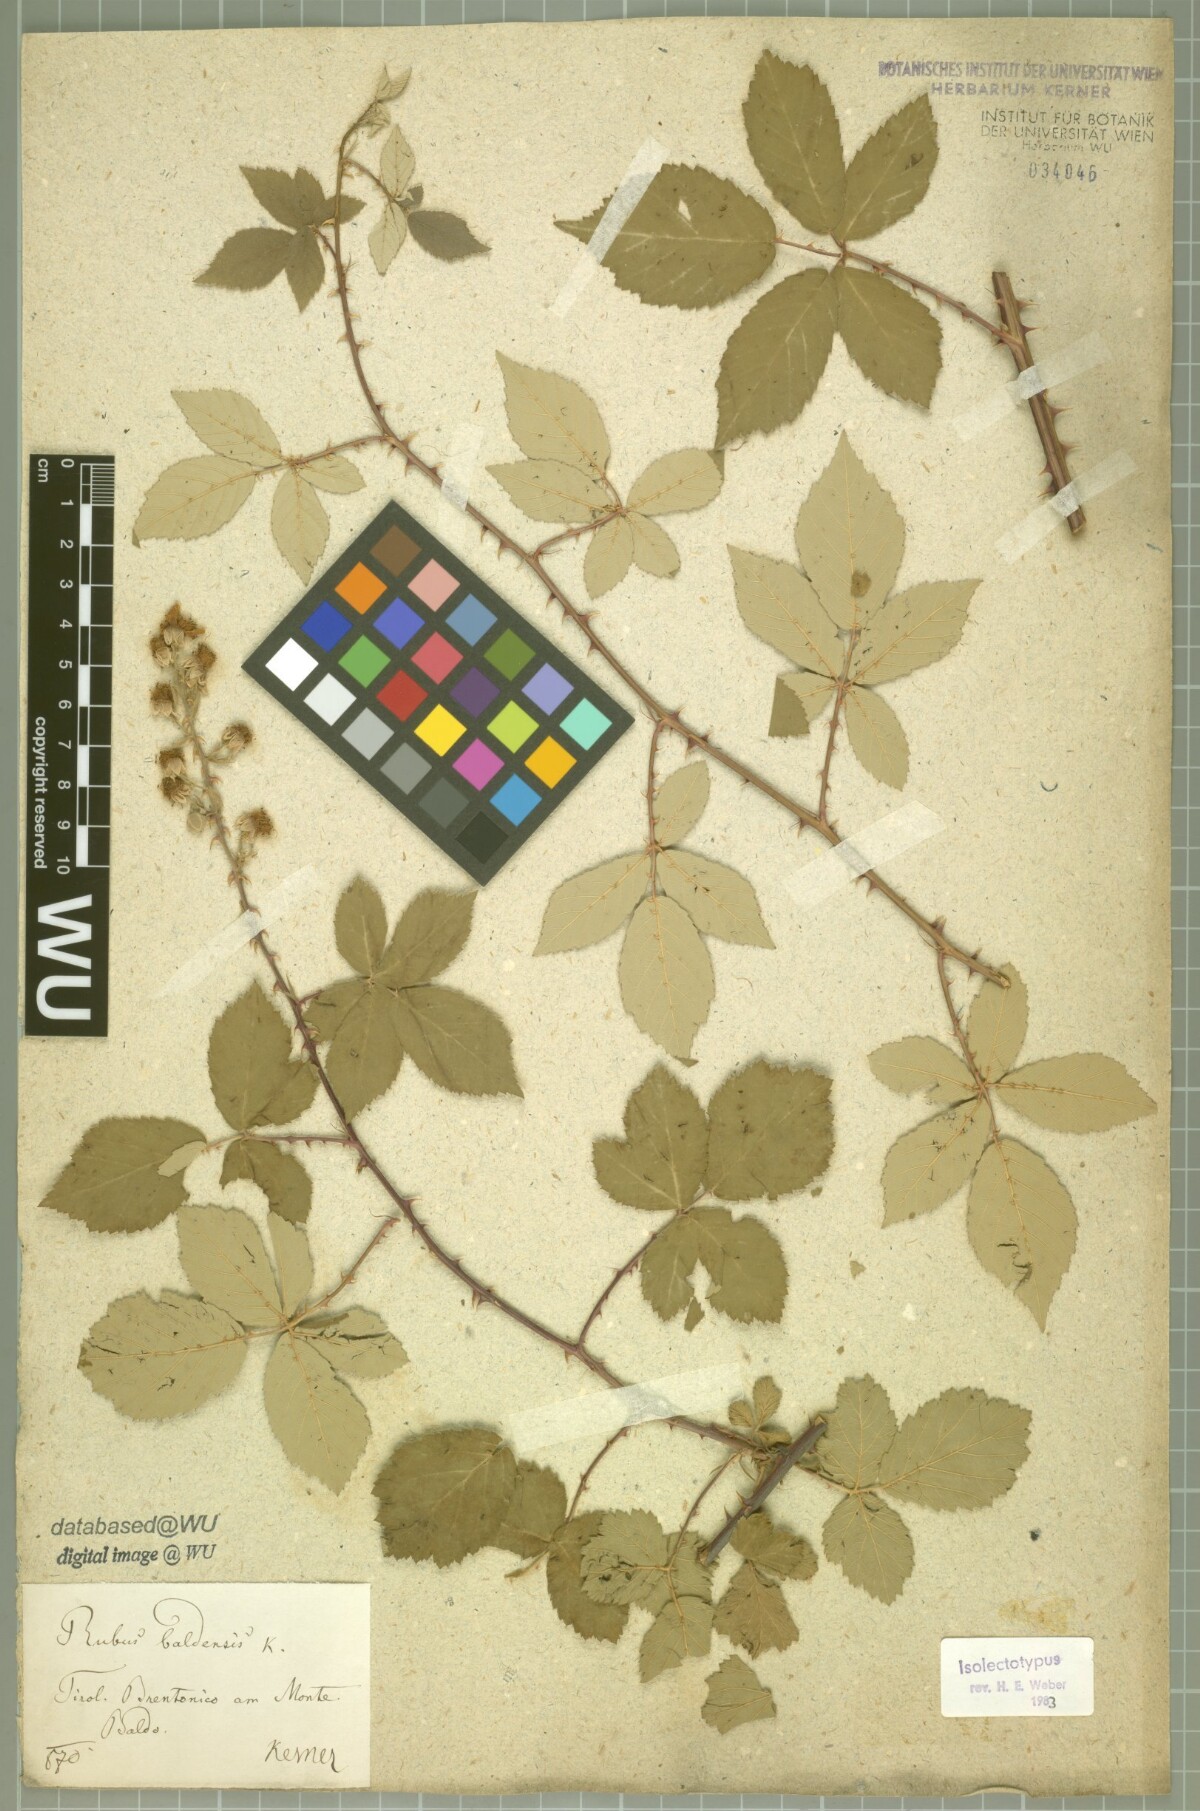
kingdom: Plantae
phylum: Tracheophyta
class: Magnoliopsida
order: Rosales
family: Rosaceae
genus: Rubus
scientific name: Rubus baldensis
